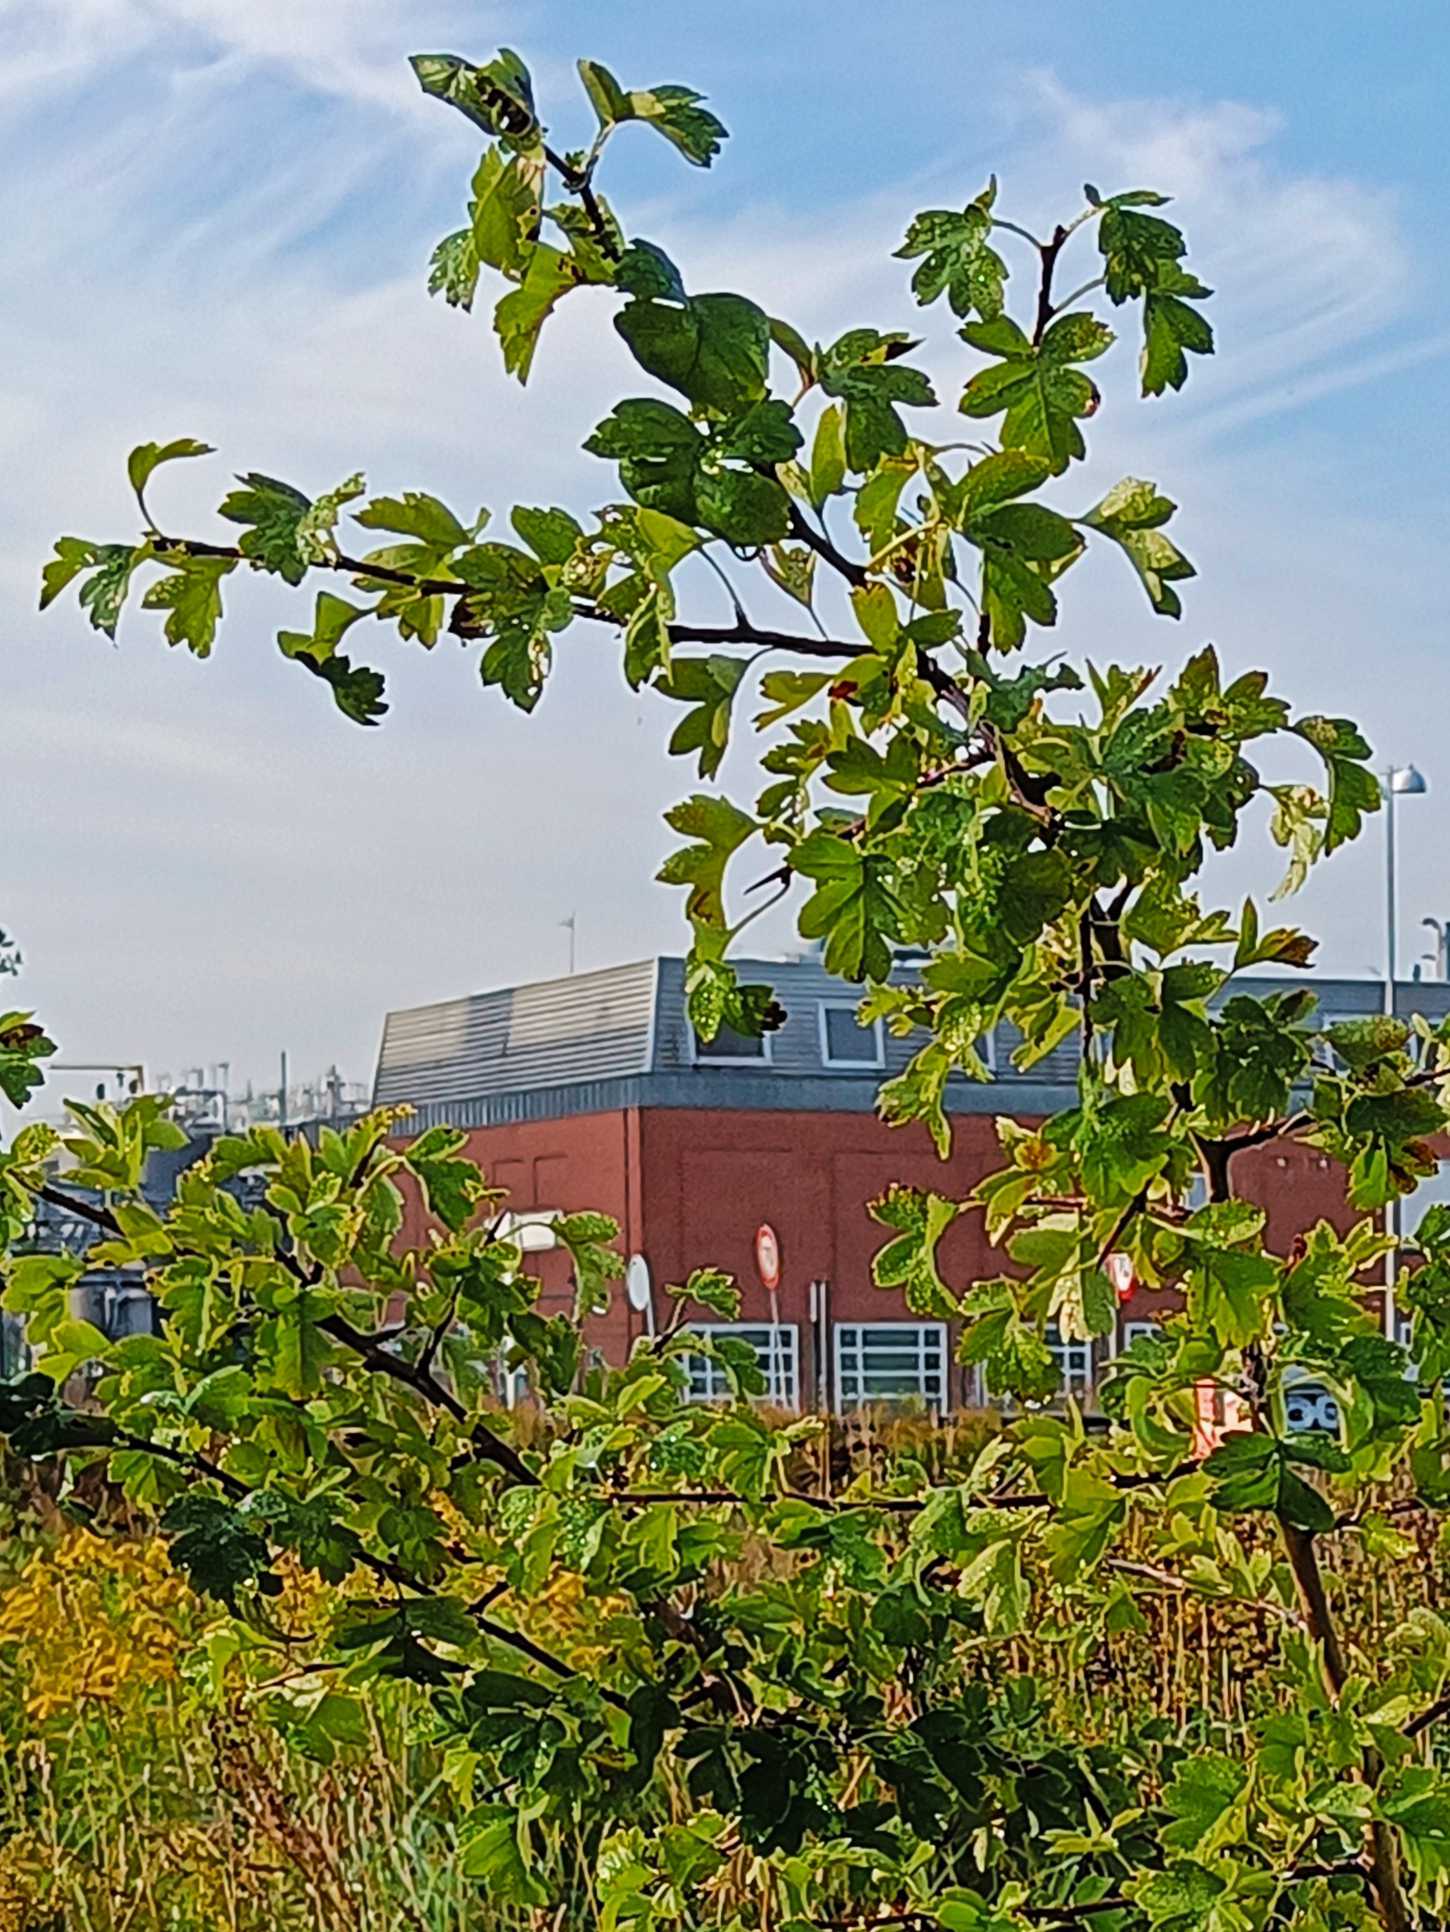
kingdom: Plantae
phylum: Tracheophyta
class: Magnoliopsida
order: Rosales
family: Rosaceae
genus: Crataegus
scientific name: Crataegus monogyna
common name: Engriflet hvidtjørn
